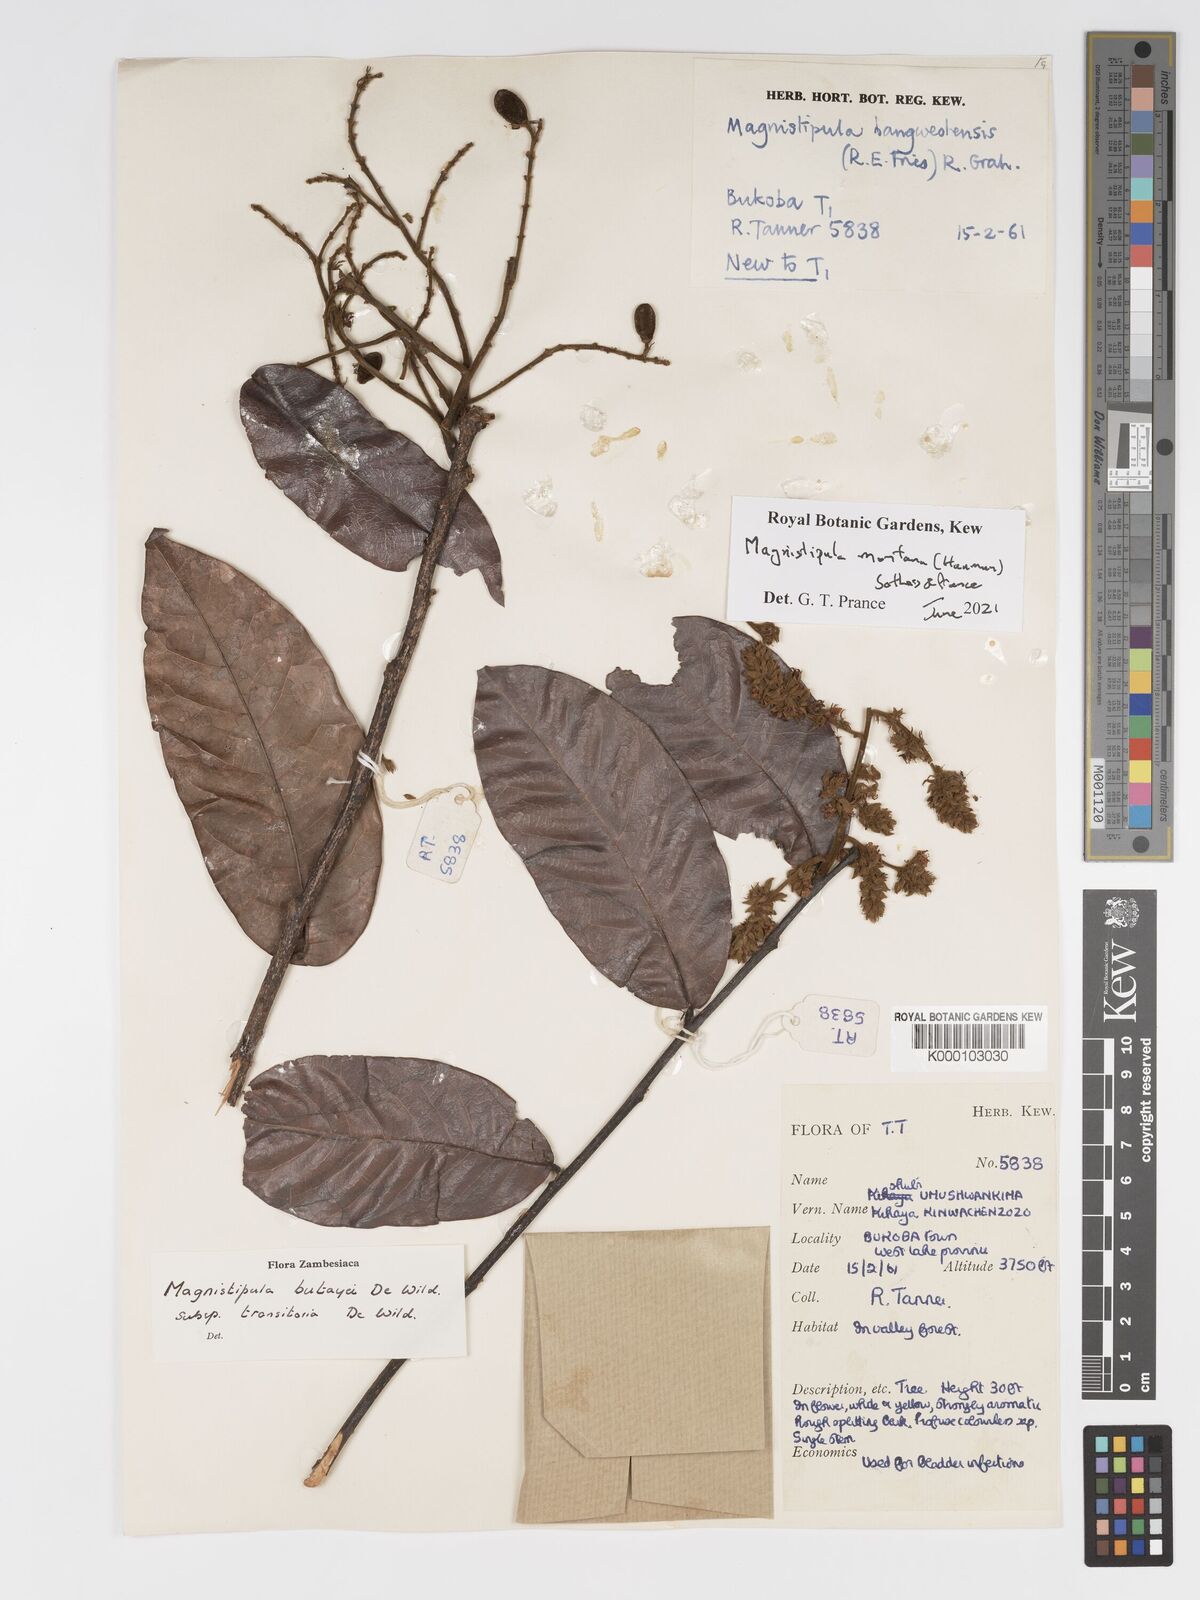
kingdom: Plantae
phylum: Tracheophyta
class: Magnoliopsida
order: Malpighiales
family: Chrysobalanaceae
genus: Magnistipula
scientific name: Magnistipula butayei
